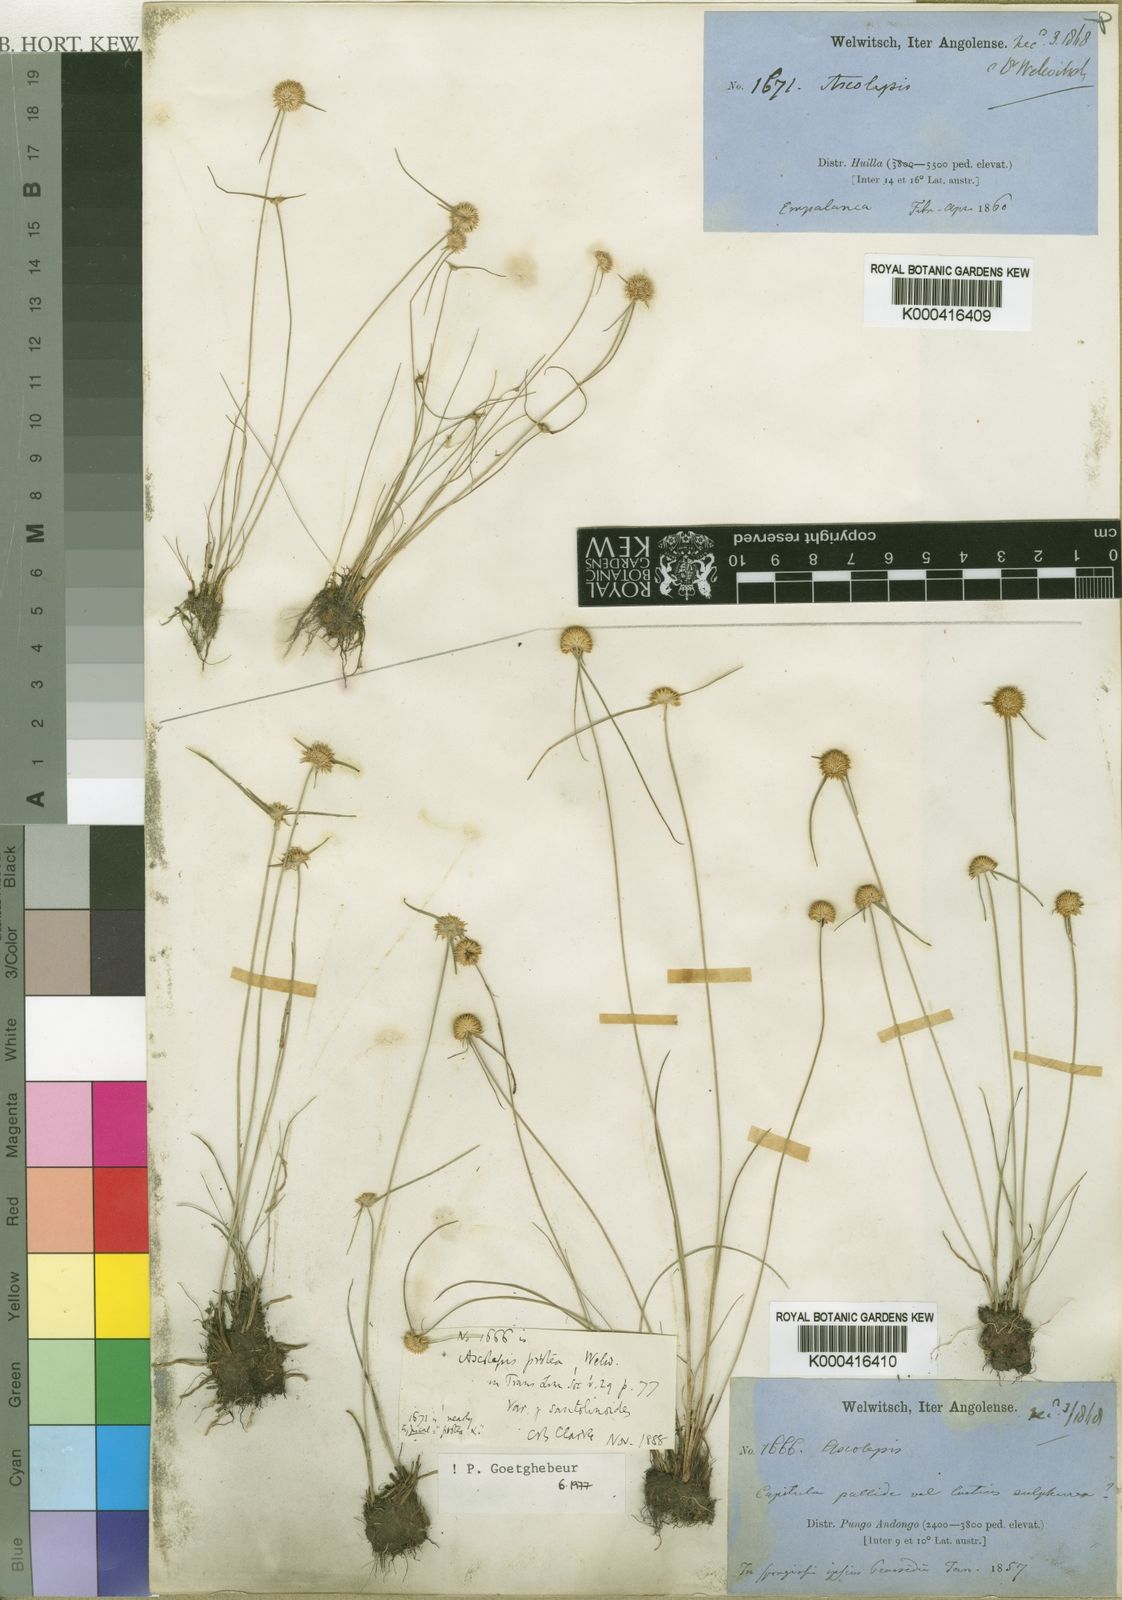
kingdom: Plantae
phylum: Tracheophyta
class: Liliopsida
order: Poales
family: Cyperaceae
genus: Cyperus
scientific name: Cyperus proteus
